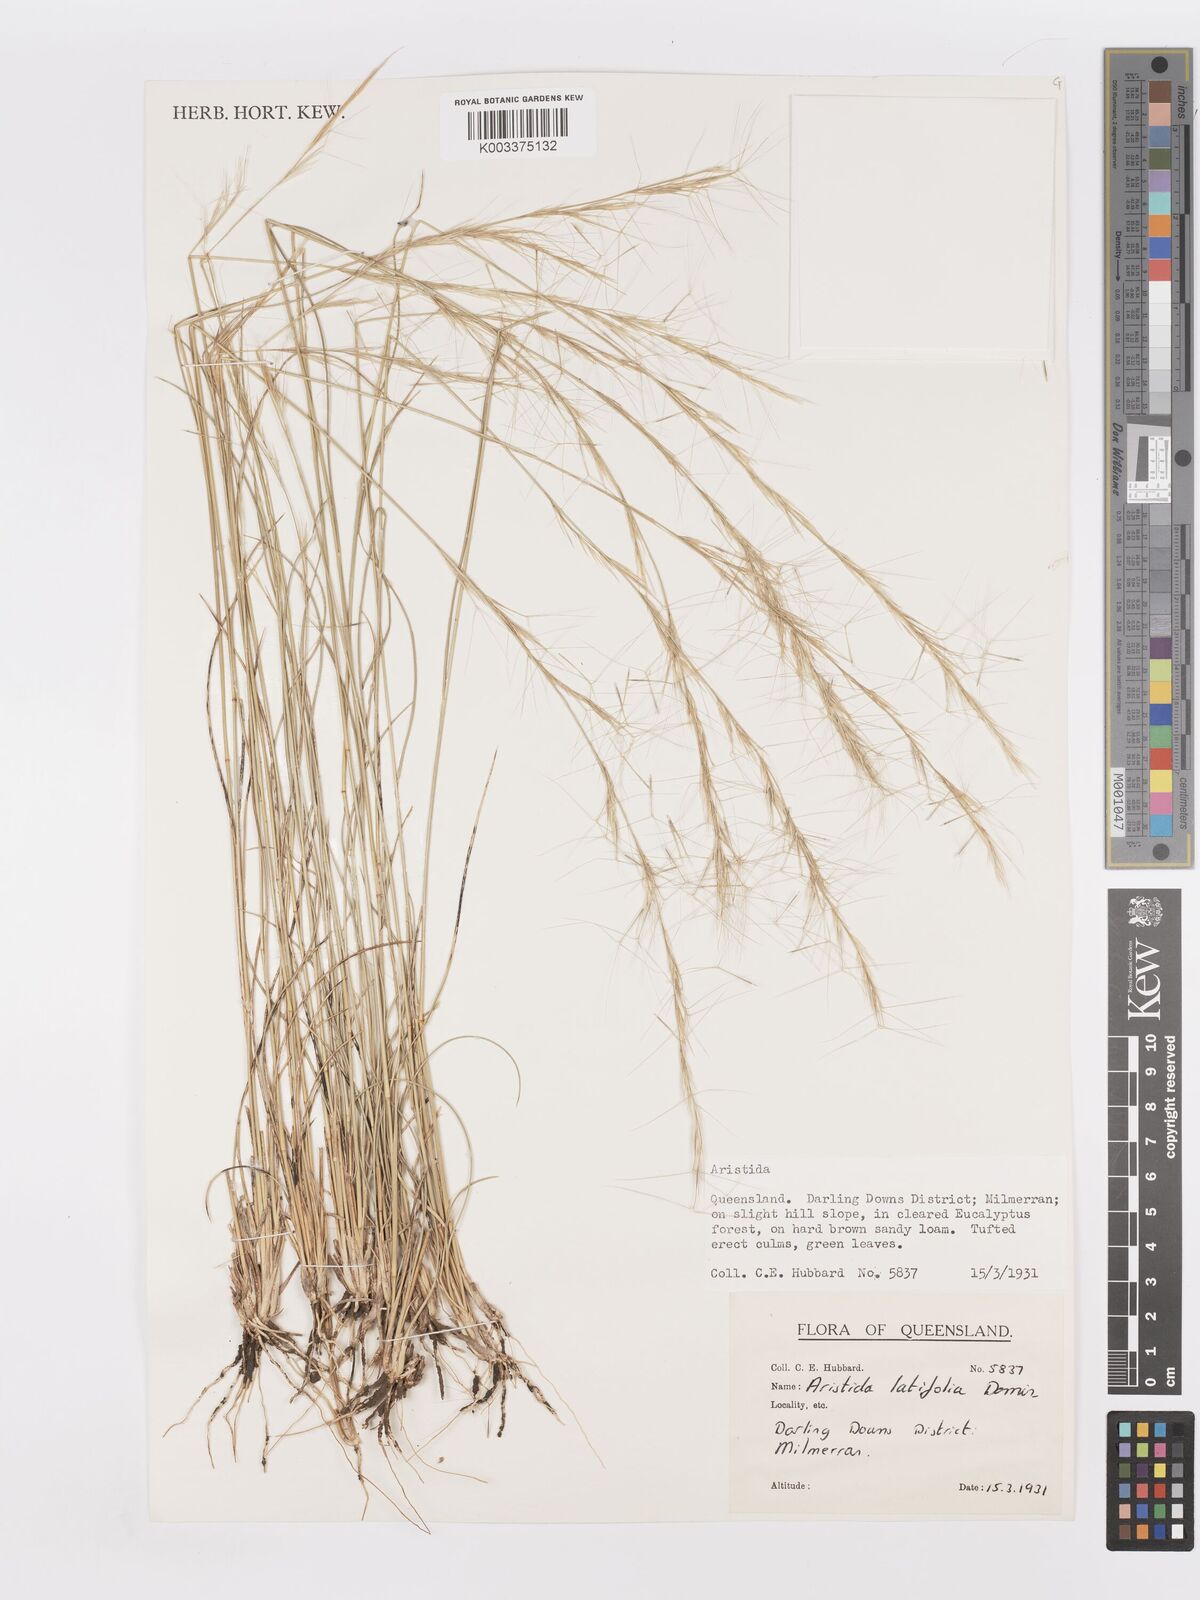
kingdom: Plantae
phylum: Tracheophyta
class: Liliopsida
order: Poales
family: Poaceae
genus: Aristida
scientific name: Aristida latifolia
